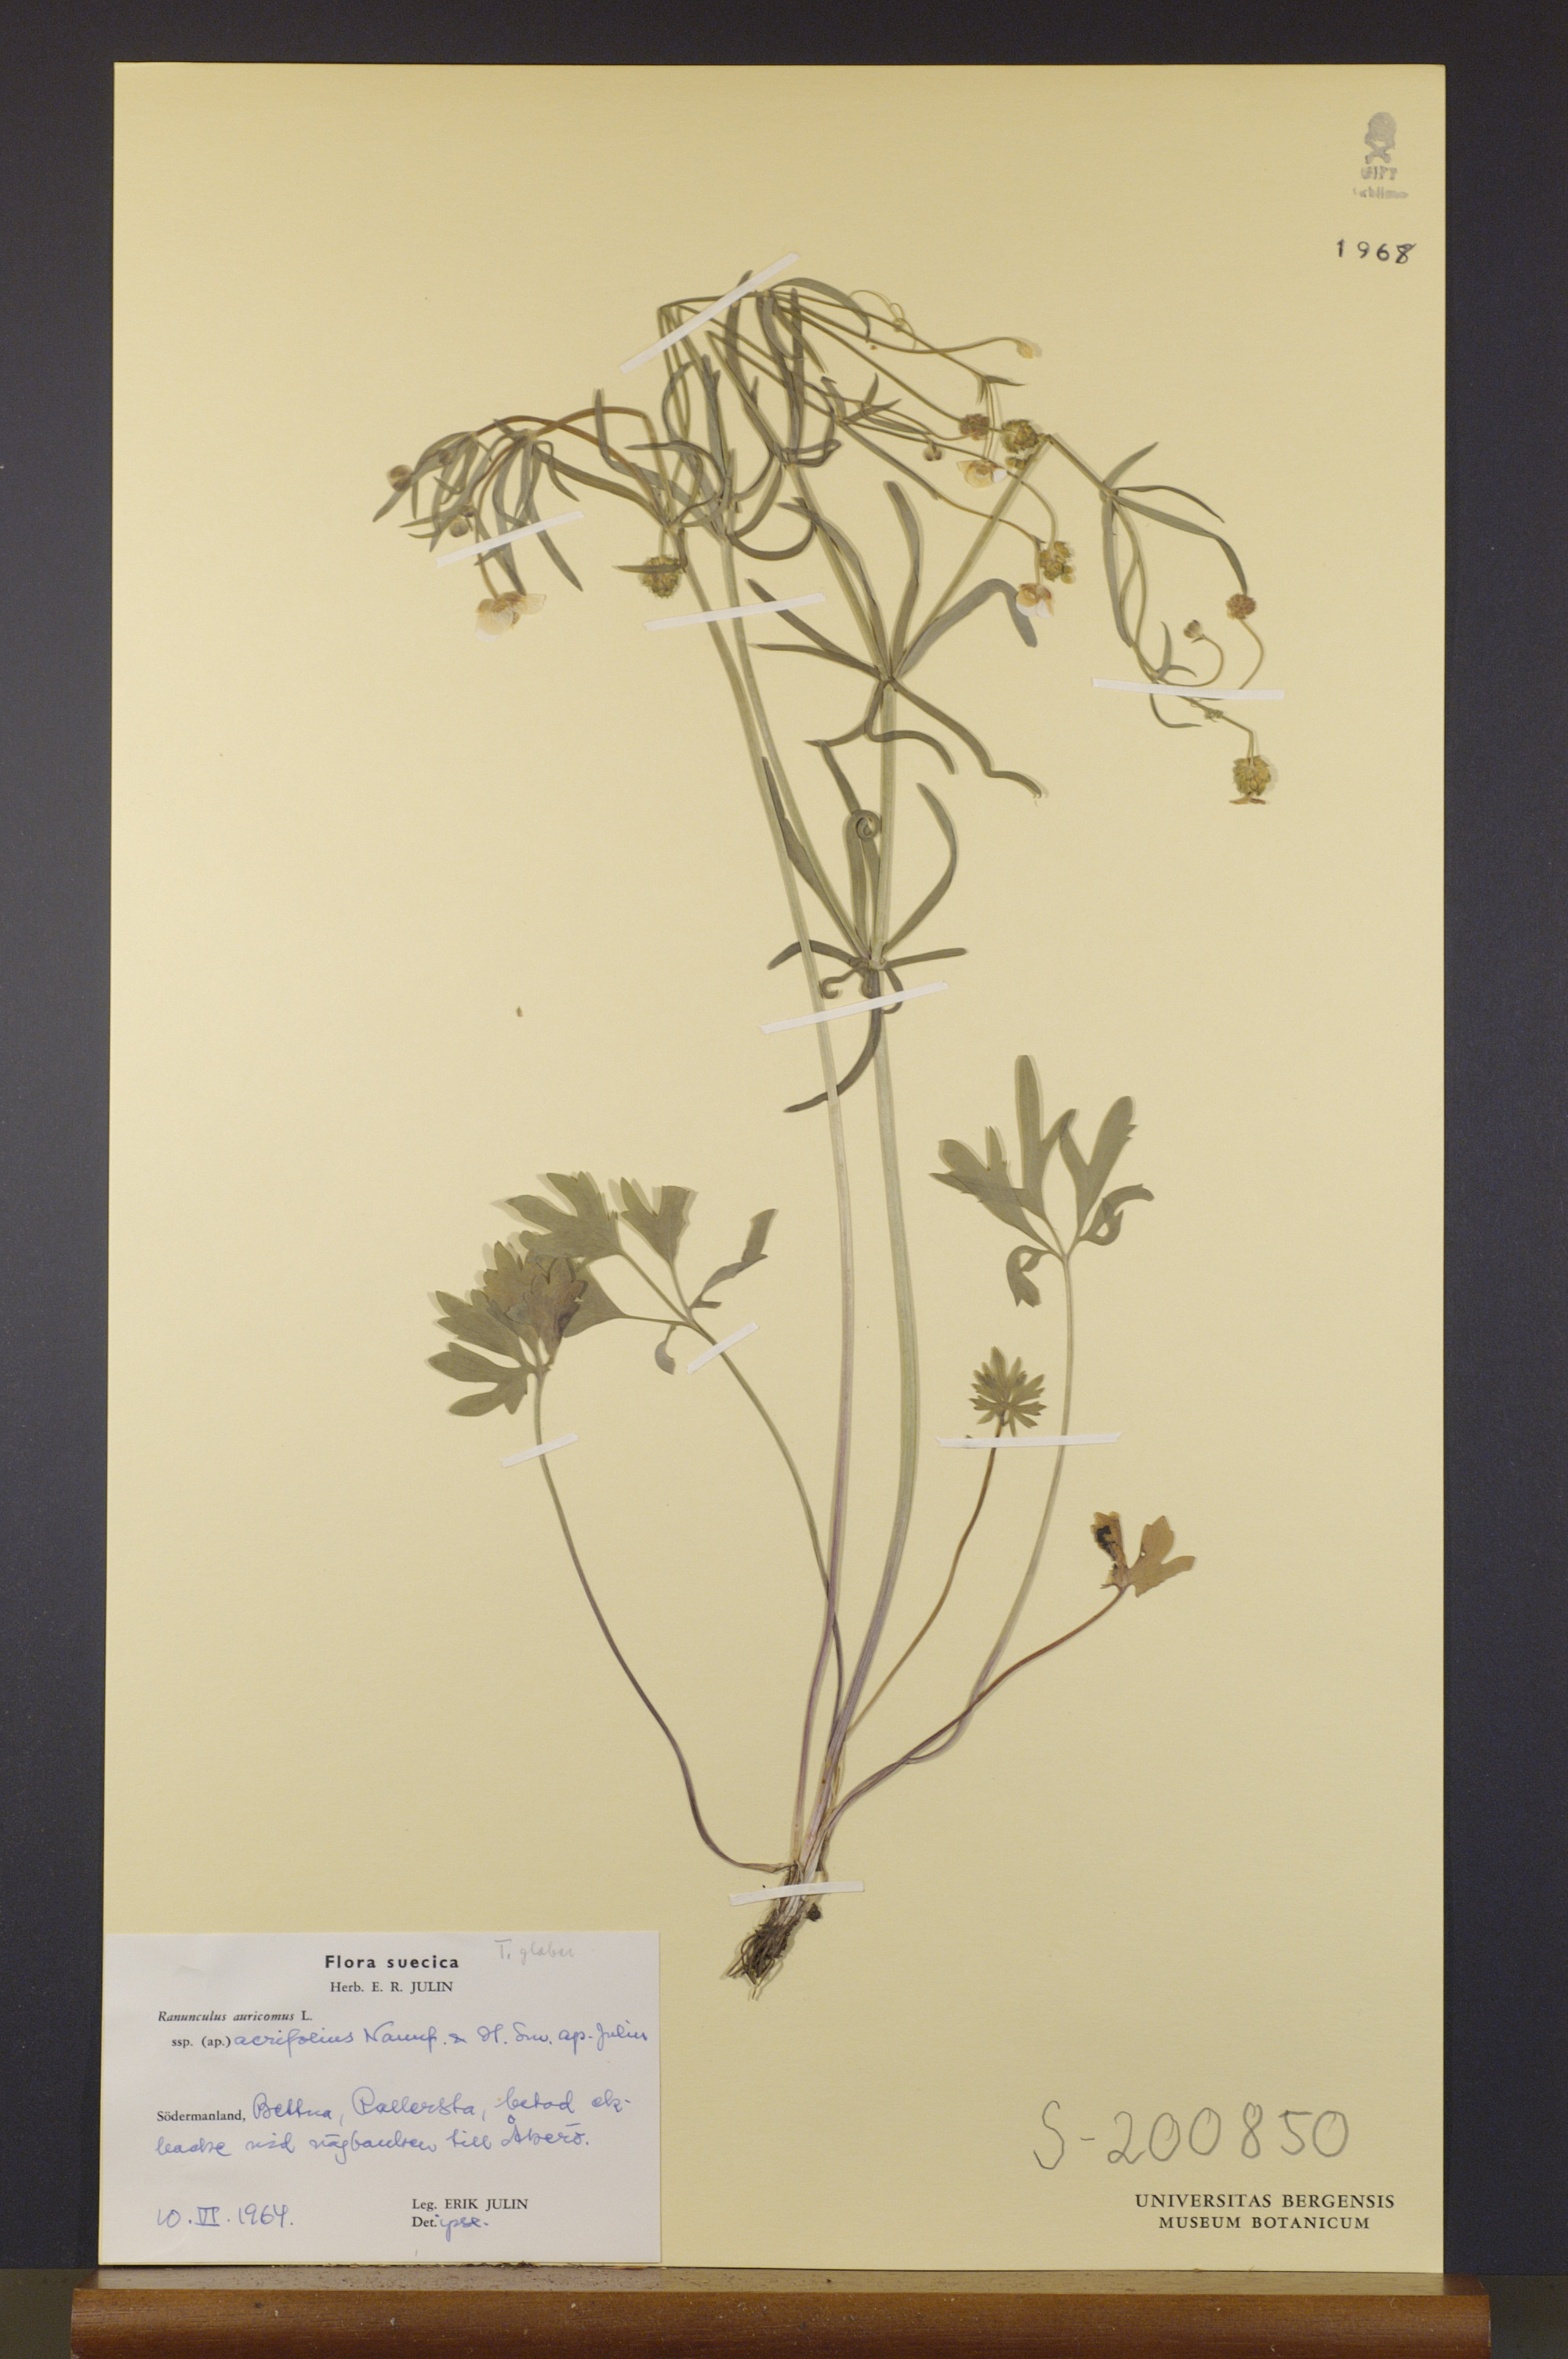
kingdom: Plantae
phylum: Tracheophyta
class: Magnoliopsida
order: Ranunculales
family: Ranunculaceae
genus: Ranunculus
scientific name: Ranunculus acrifolius
